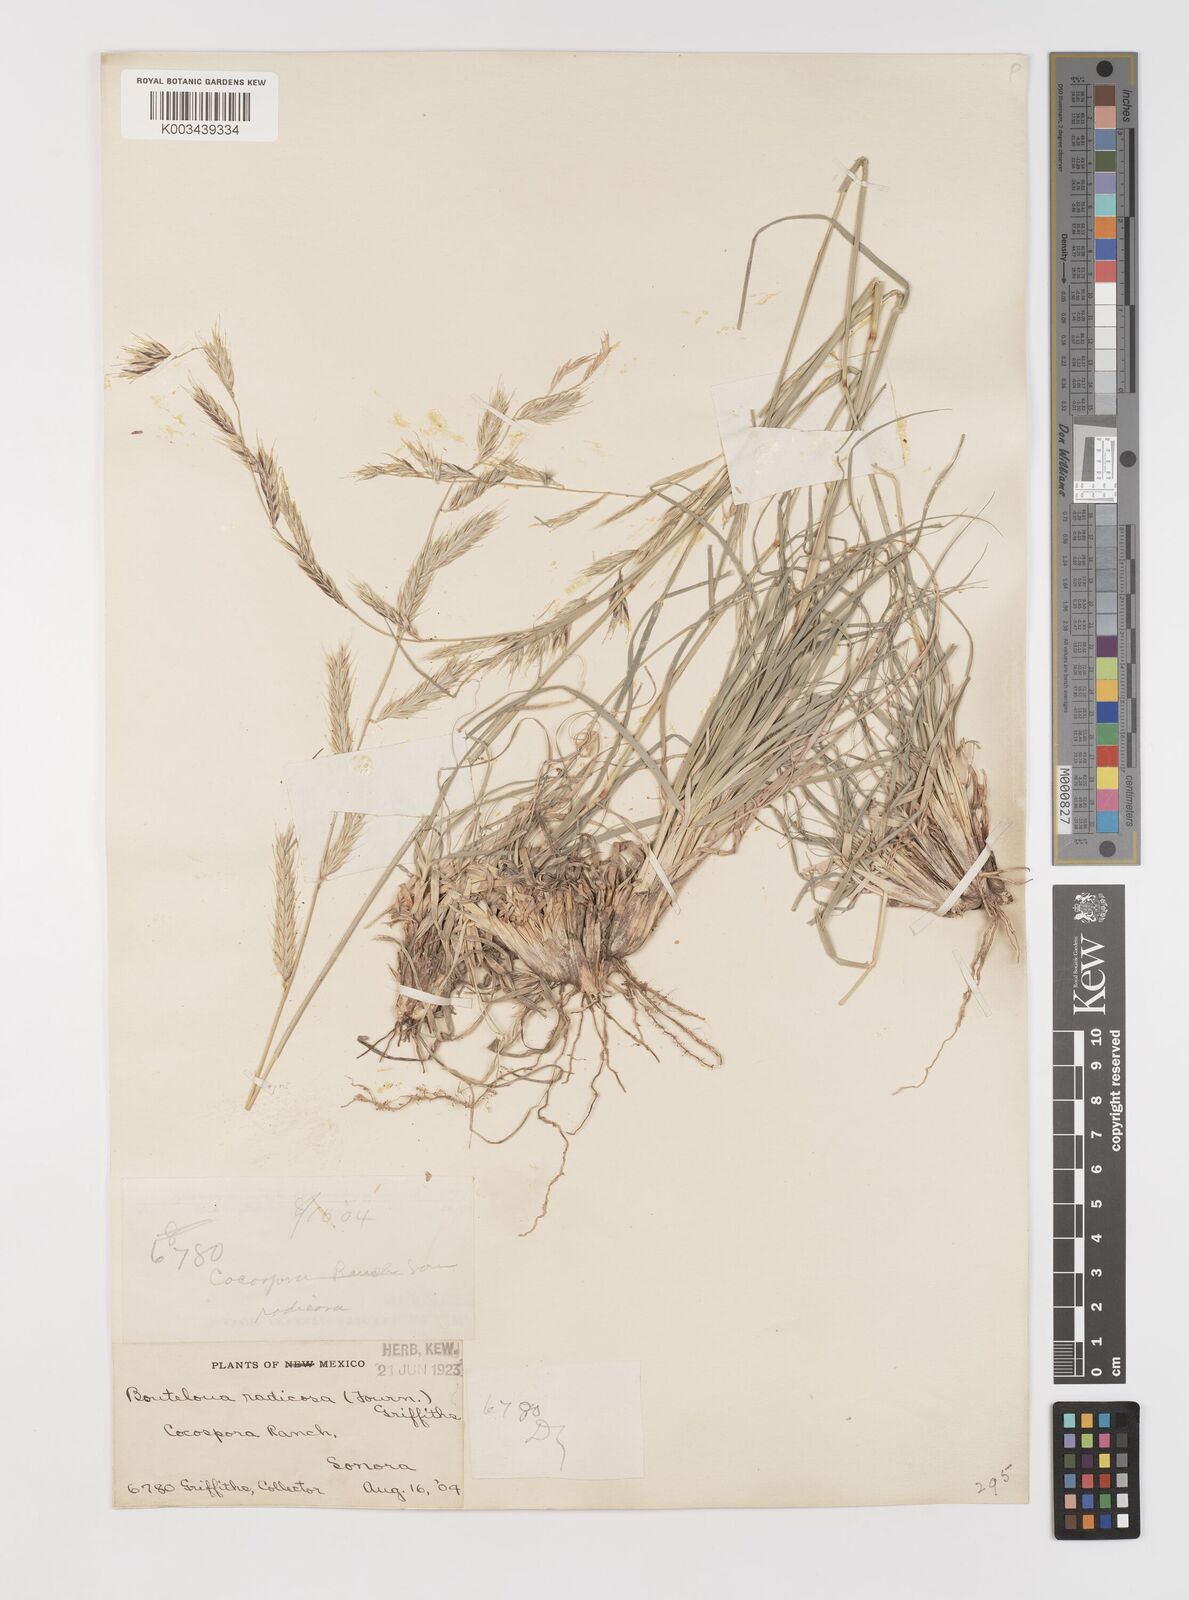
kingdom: Plantae
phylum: Tracheophyta
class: Liliopsida
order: Poales
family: Poaceae
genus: Bouteloua
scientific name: Bouteloua radicosa
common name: Purple grama
